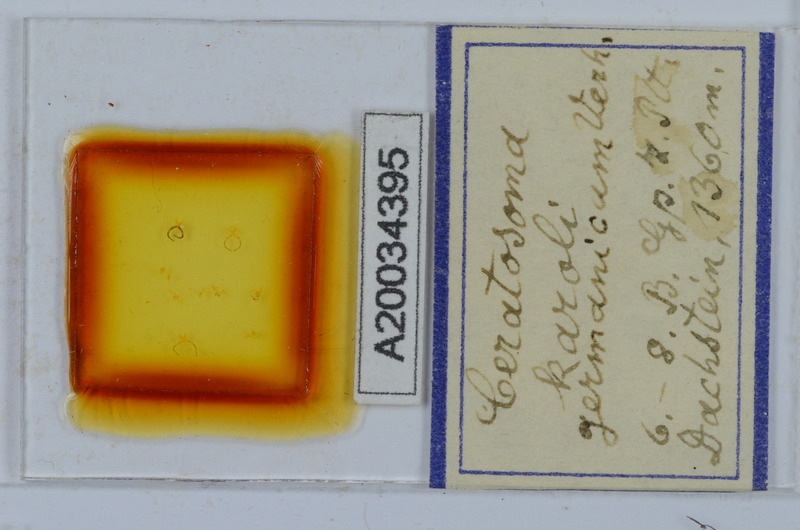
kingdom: Animalia
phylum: Arthropoda
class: Diplopoda
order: Chordeumatida
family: Craspedosomatidae
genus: Ochogona
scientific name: Ochogona caroli
